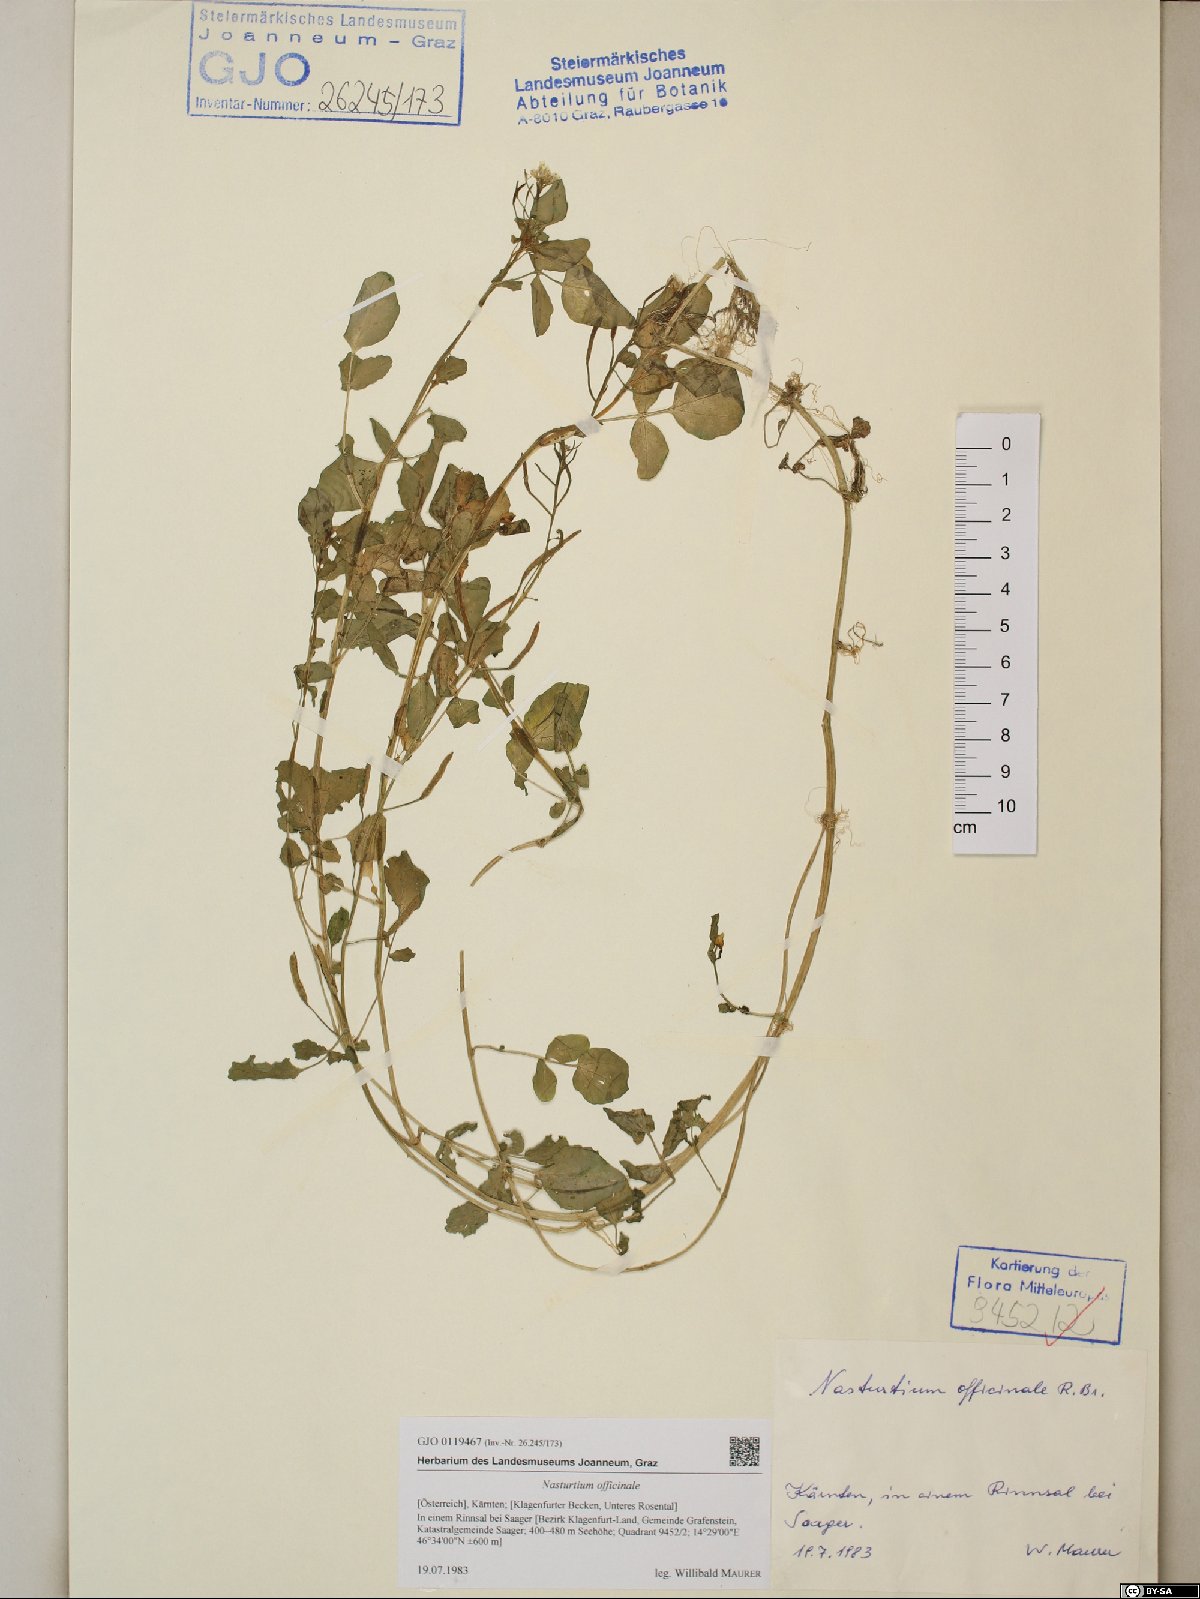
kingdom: Plantae
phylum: Tracheophyta
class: Magnoliopsida
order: Brassicales
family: Brassicaceae
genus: Nasturtium
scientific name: Nasturtium officinale
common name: Watercress
